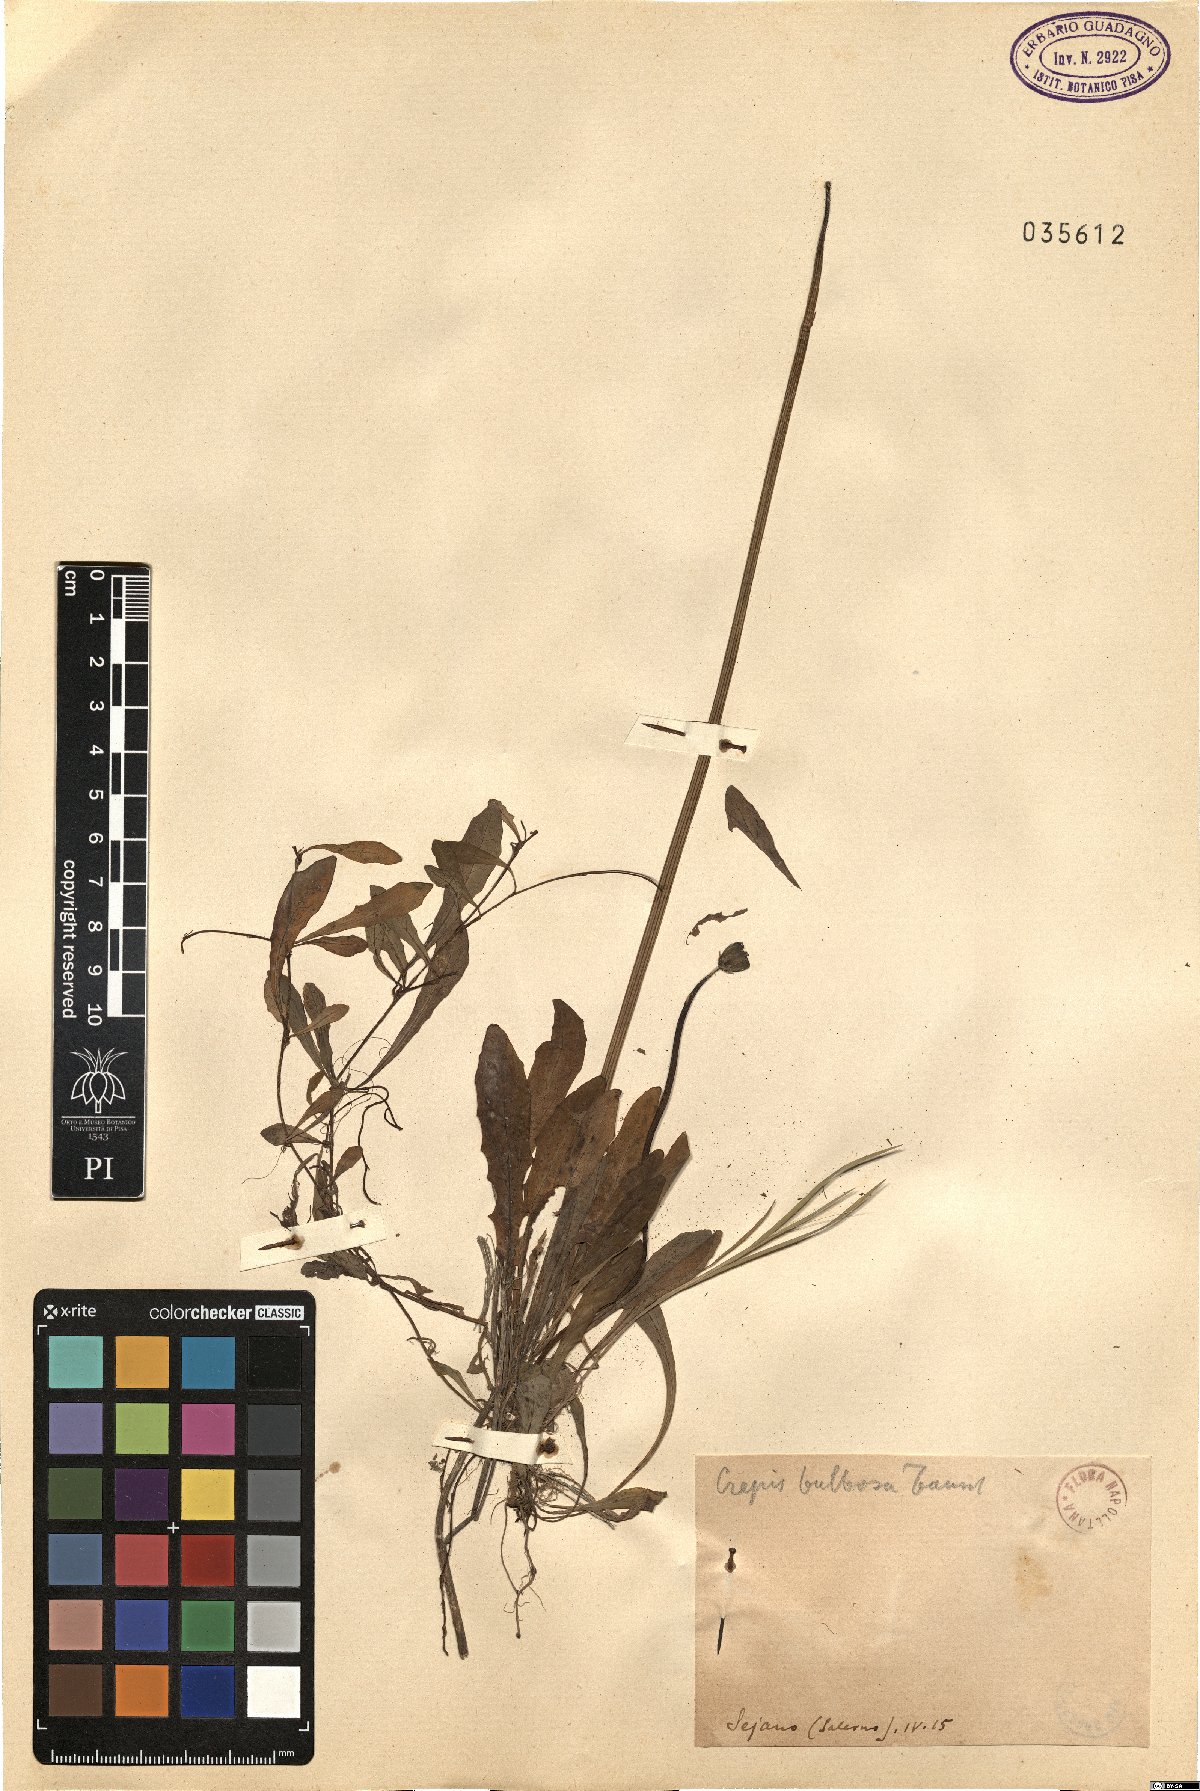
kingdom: Plantae
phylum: Tracheophyta
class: Magnoliopsida
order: Asterales
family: Asteraceae
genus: Aetheorhiza
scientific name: Aetheorhiza bulbosa
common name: Tuberous hawk's-beard
